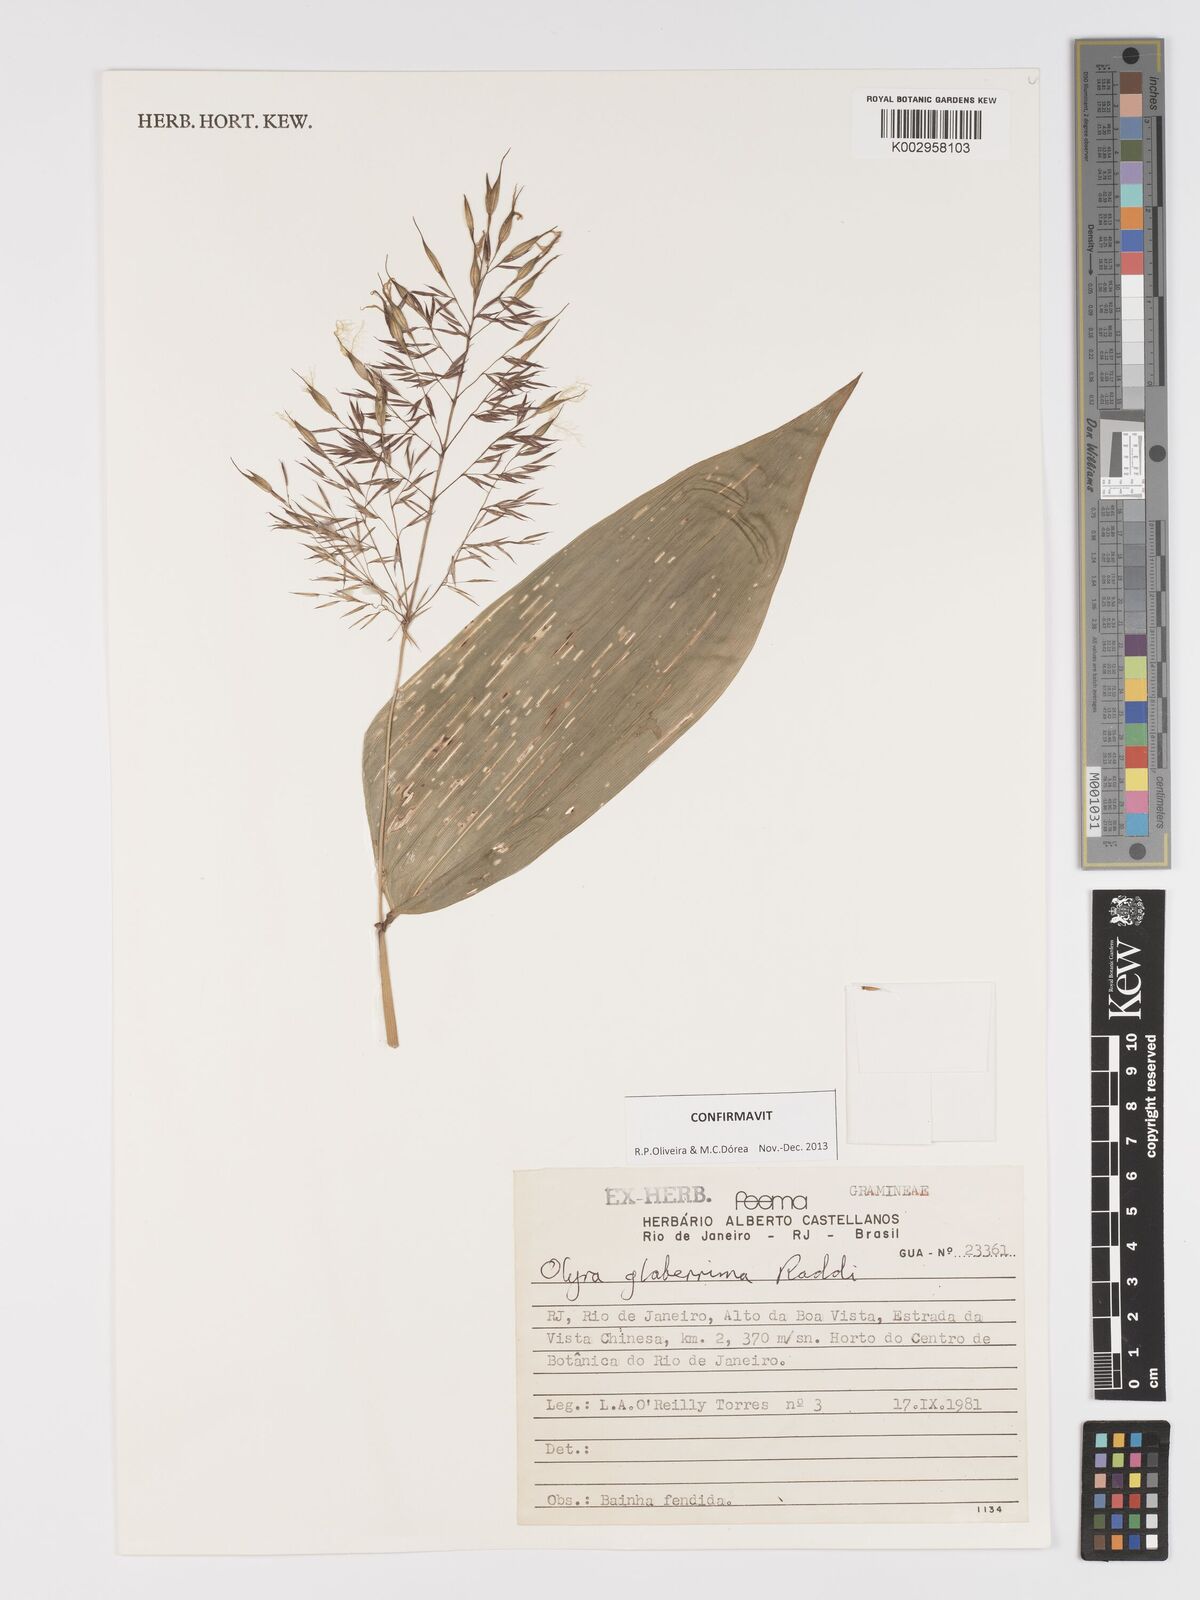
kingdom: Plantae
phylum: Tracheophyta
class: Liliopsida
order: Poales
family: Poaceae
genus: Olyra
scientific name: Olyra glaberrima
